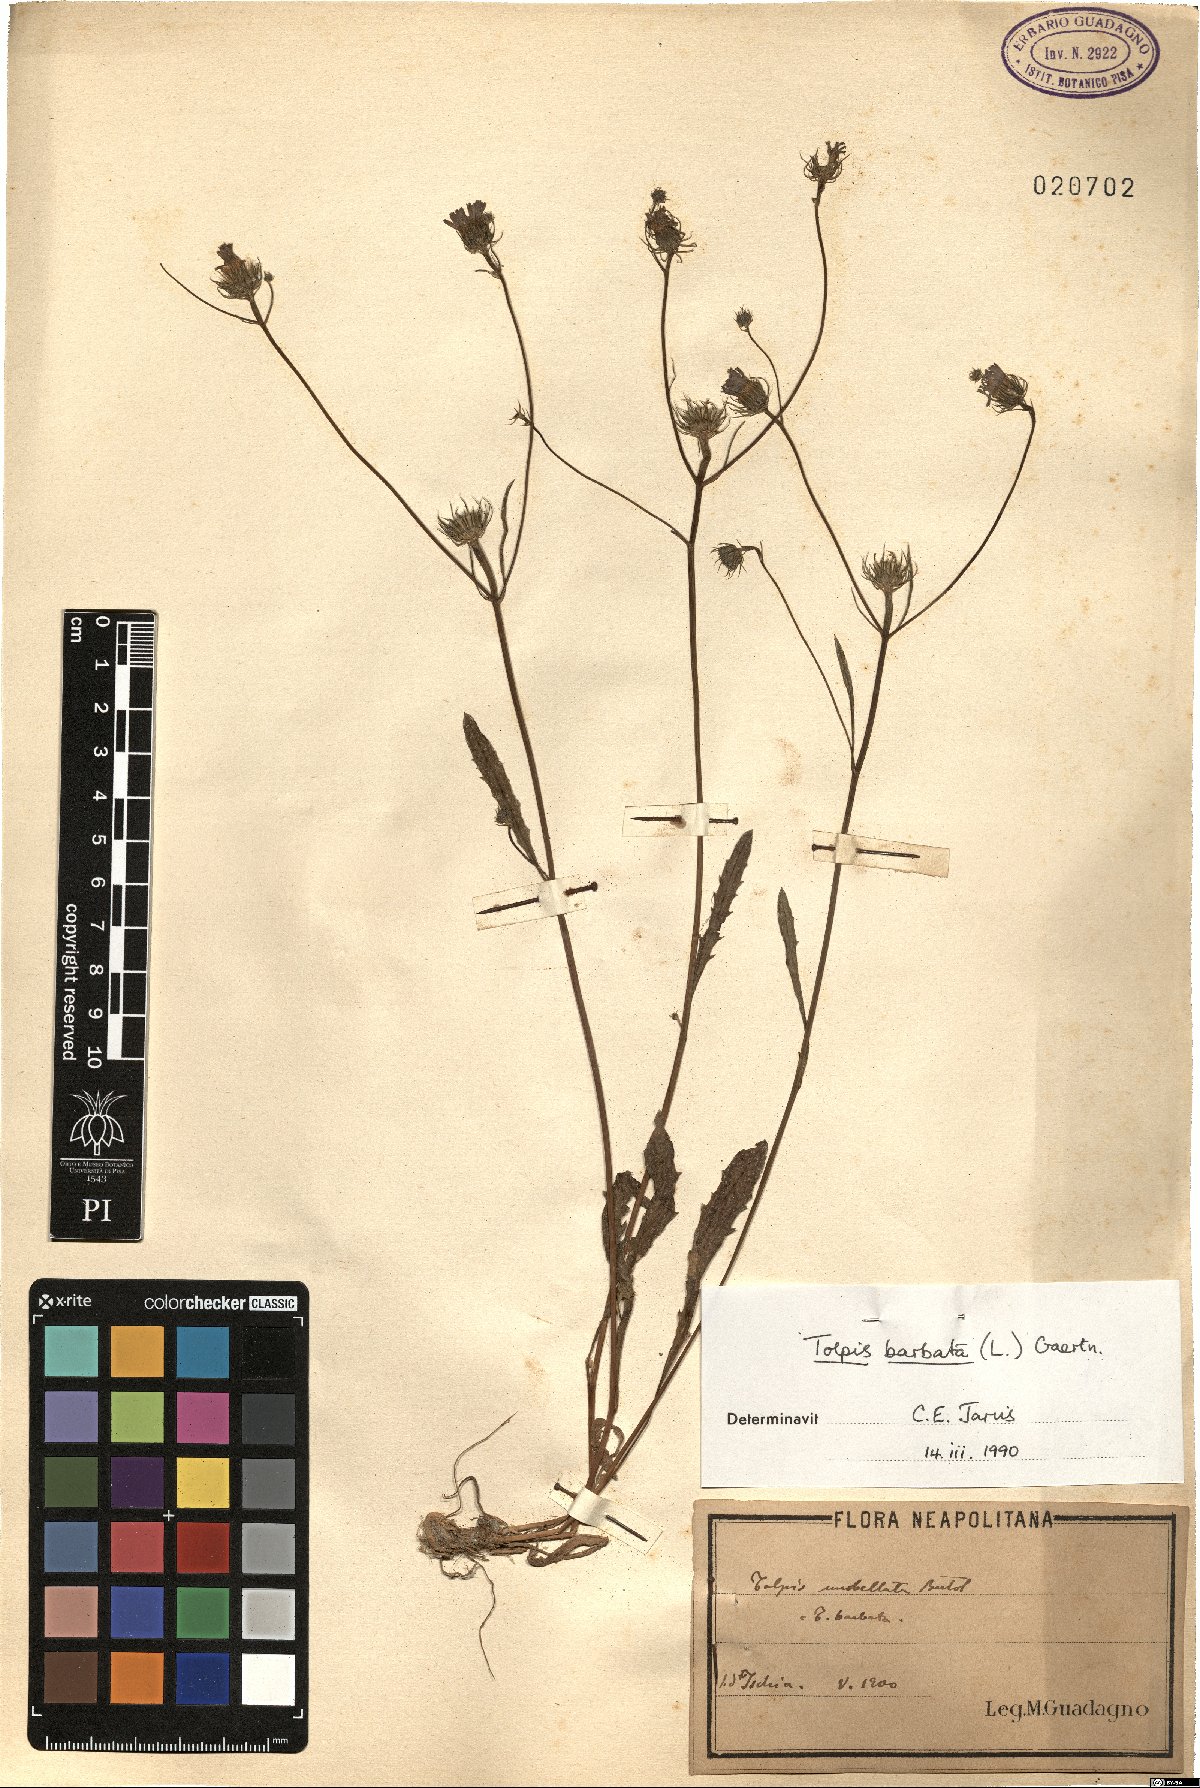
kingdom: Plantae
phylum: Tracheophyta
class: Magnoliopsida
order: Asterales
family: Asteraceae
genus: Tolpis
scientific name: Tolpis barbata
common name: Yellow hawkweed
